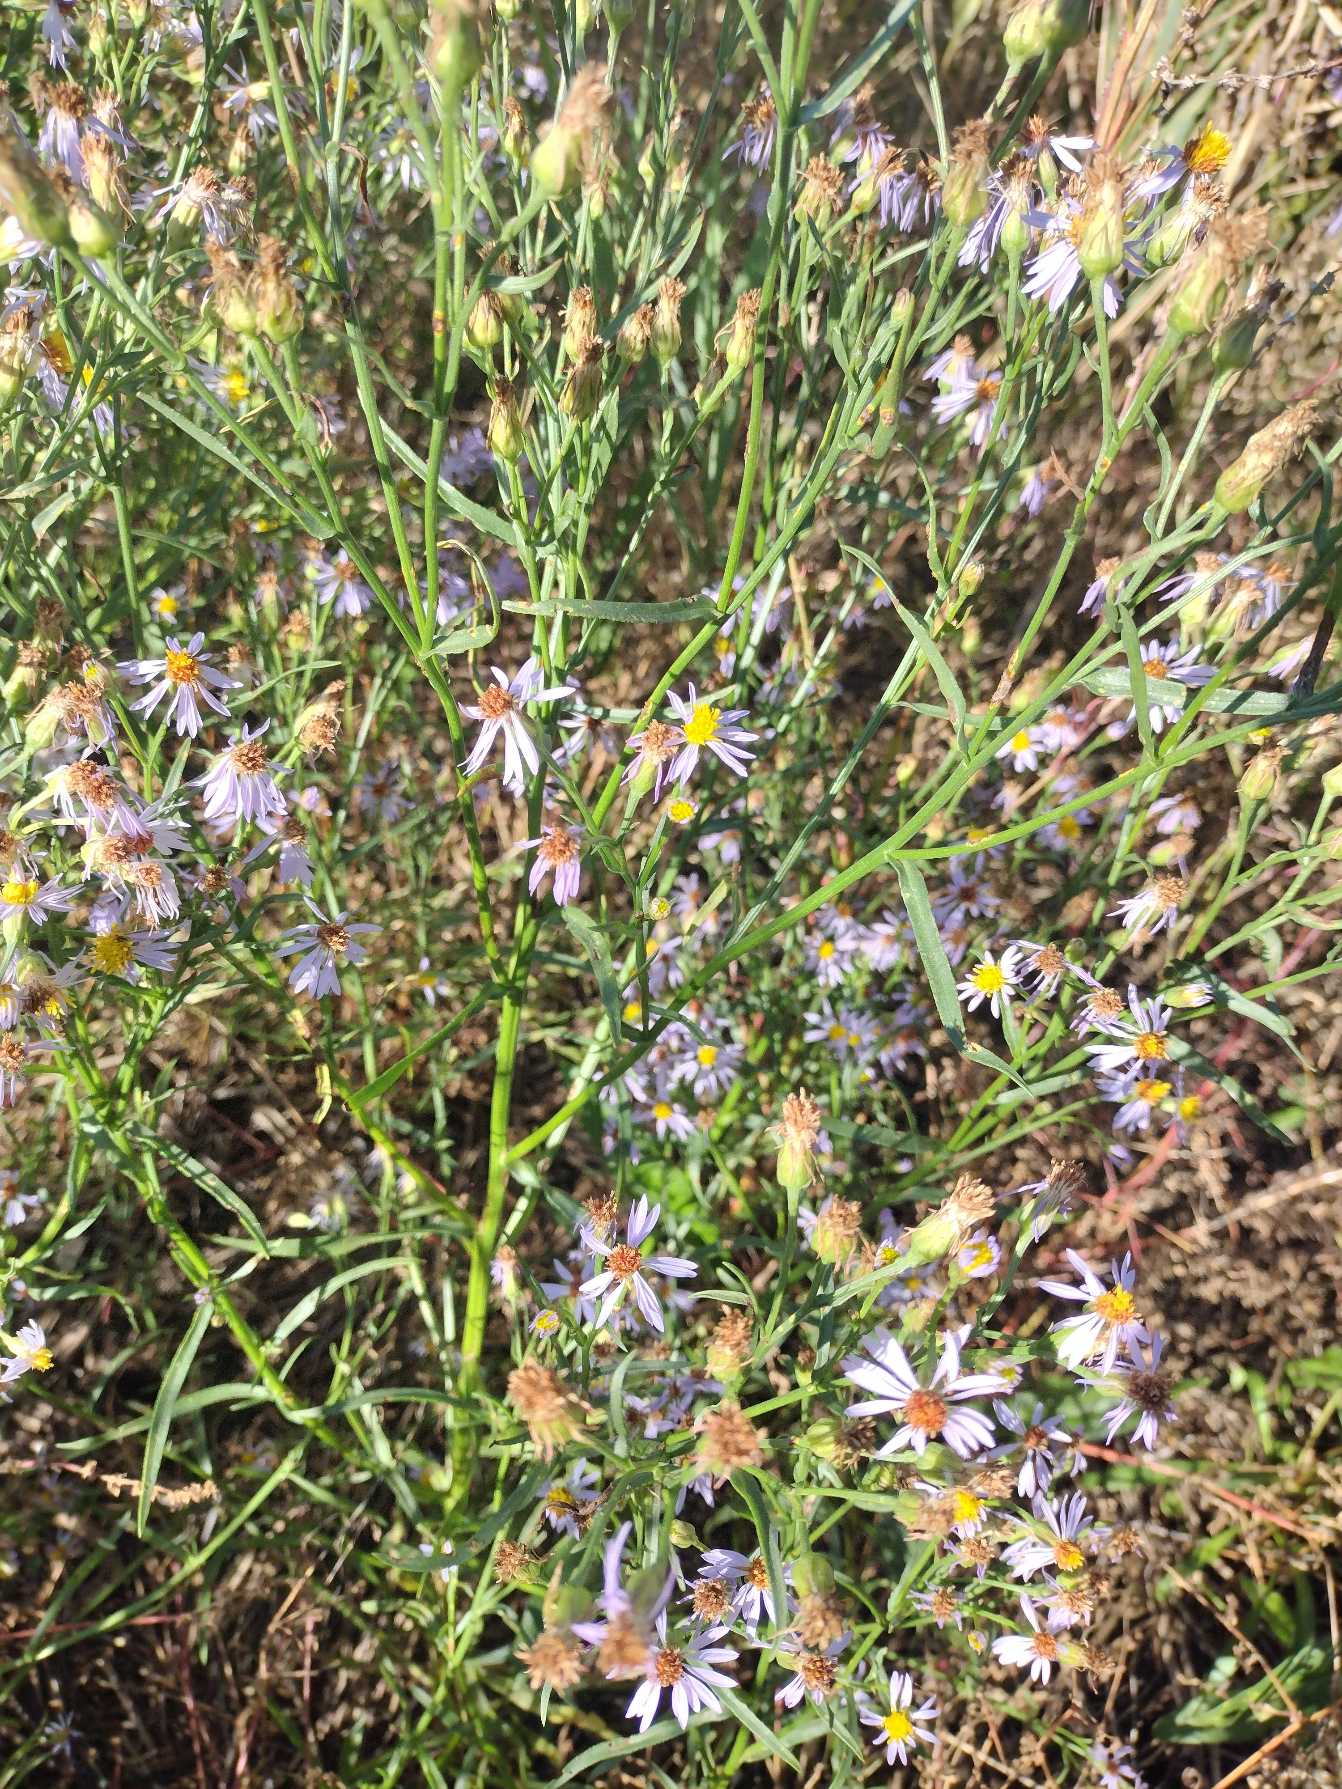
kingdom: Plantae
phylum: Tracheophyta
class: Magnoliopsida
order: Asterales
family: Asteraceae
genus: Tripolium
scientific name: Tripolium pannonicum
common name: Strandasters
